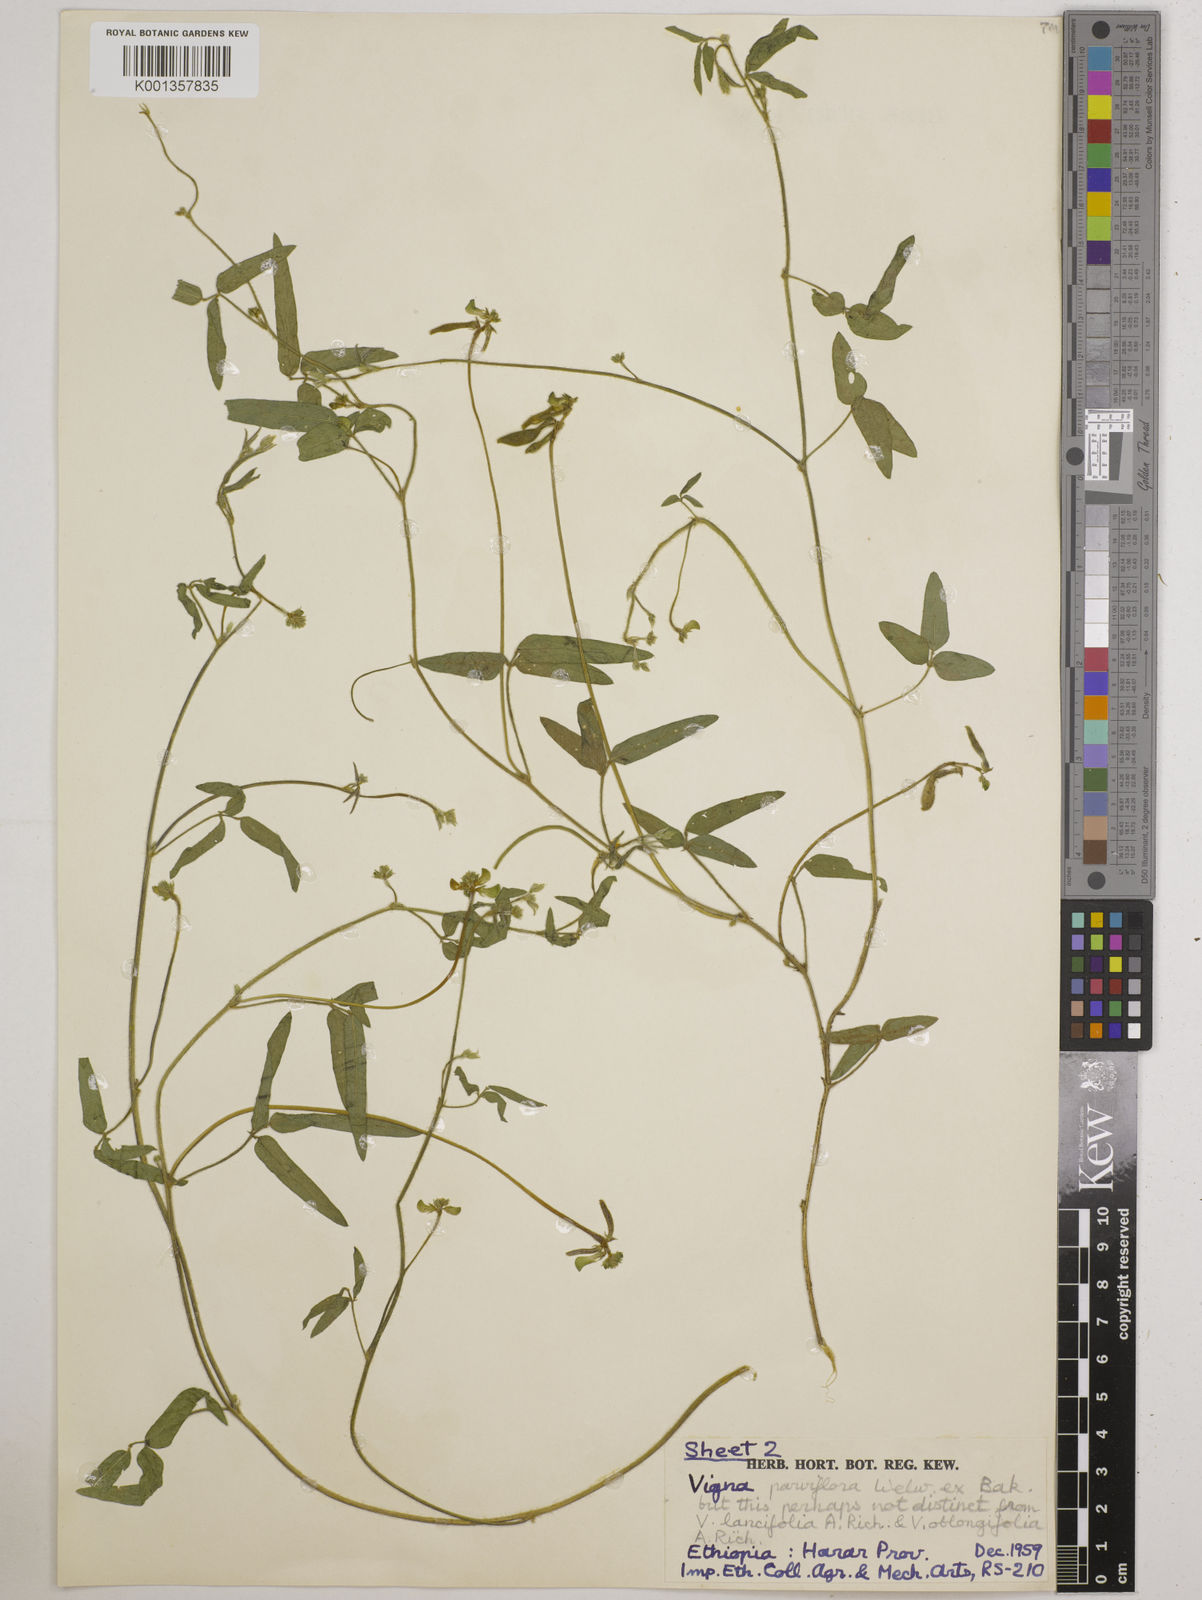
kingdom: Plantae
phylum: Tracheophyta
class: Magnoliopsida
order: Fabales
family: Fabaceae
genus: Vigna
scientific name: Vigna
